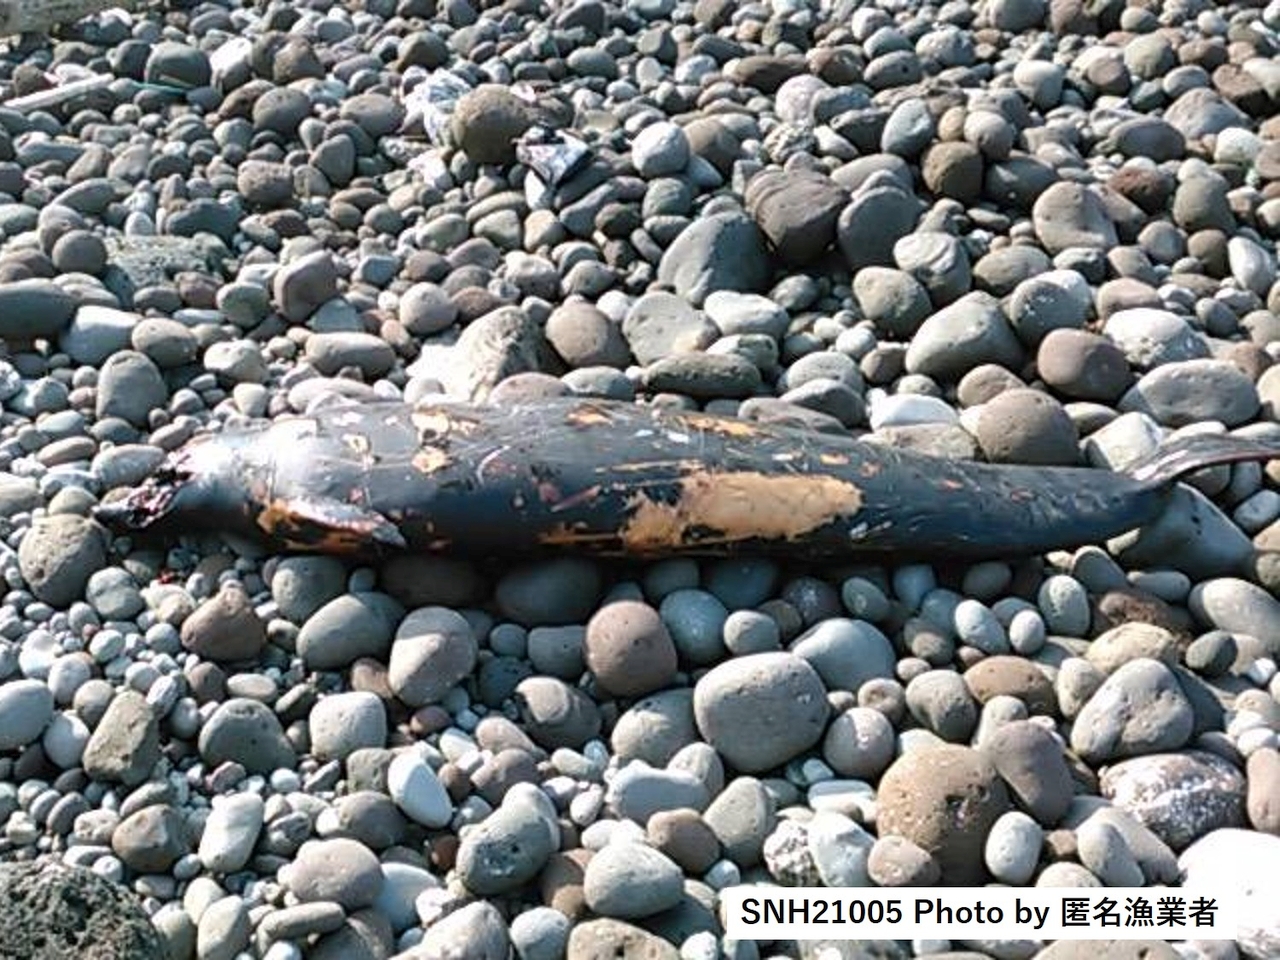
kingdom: Animalia
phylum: Chordata
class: Mammalia
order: Cetacea
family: Hyperoodontidae
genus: Mesoplodon
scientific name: Mesoplodon stejnegeri
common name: Stejneger's beaked whale
